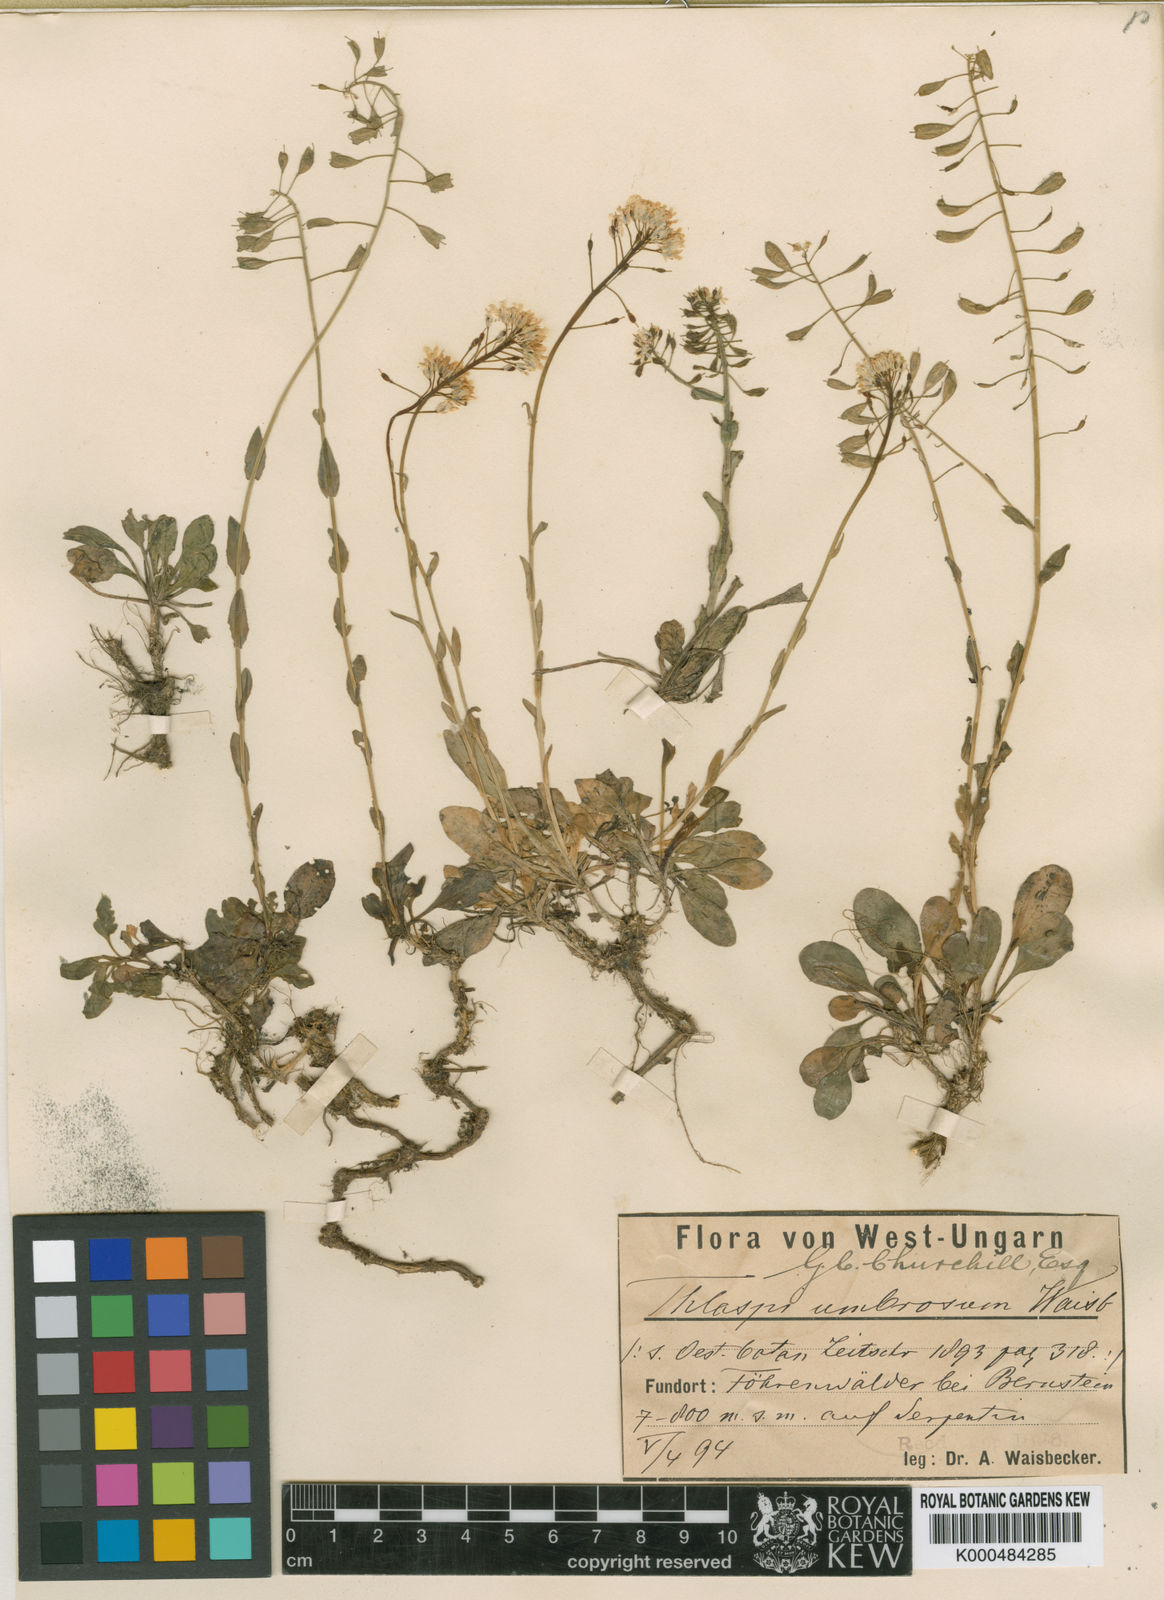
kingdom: Plantae
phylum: Tracheophyta
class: Magnoliopsida
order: Brassicales
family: Brassicaceae
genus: Noccaea
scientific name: Noccaea tymphaea
